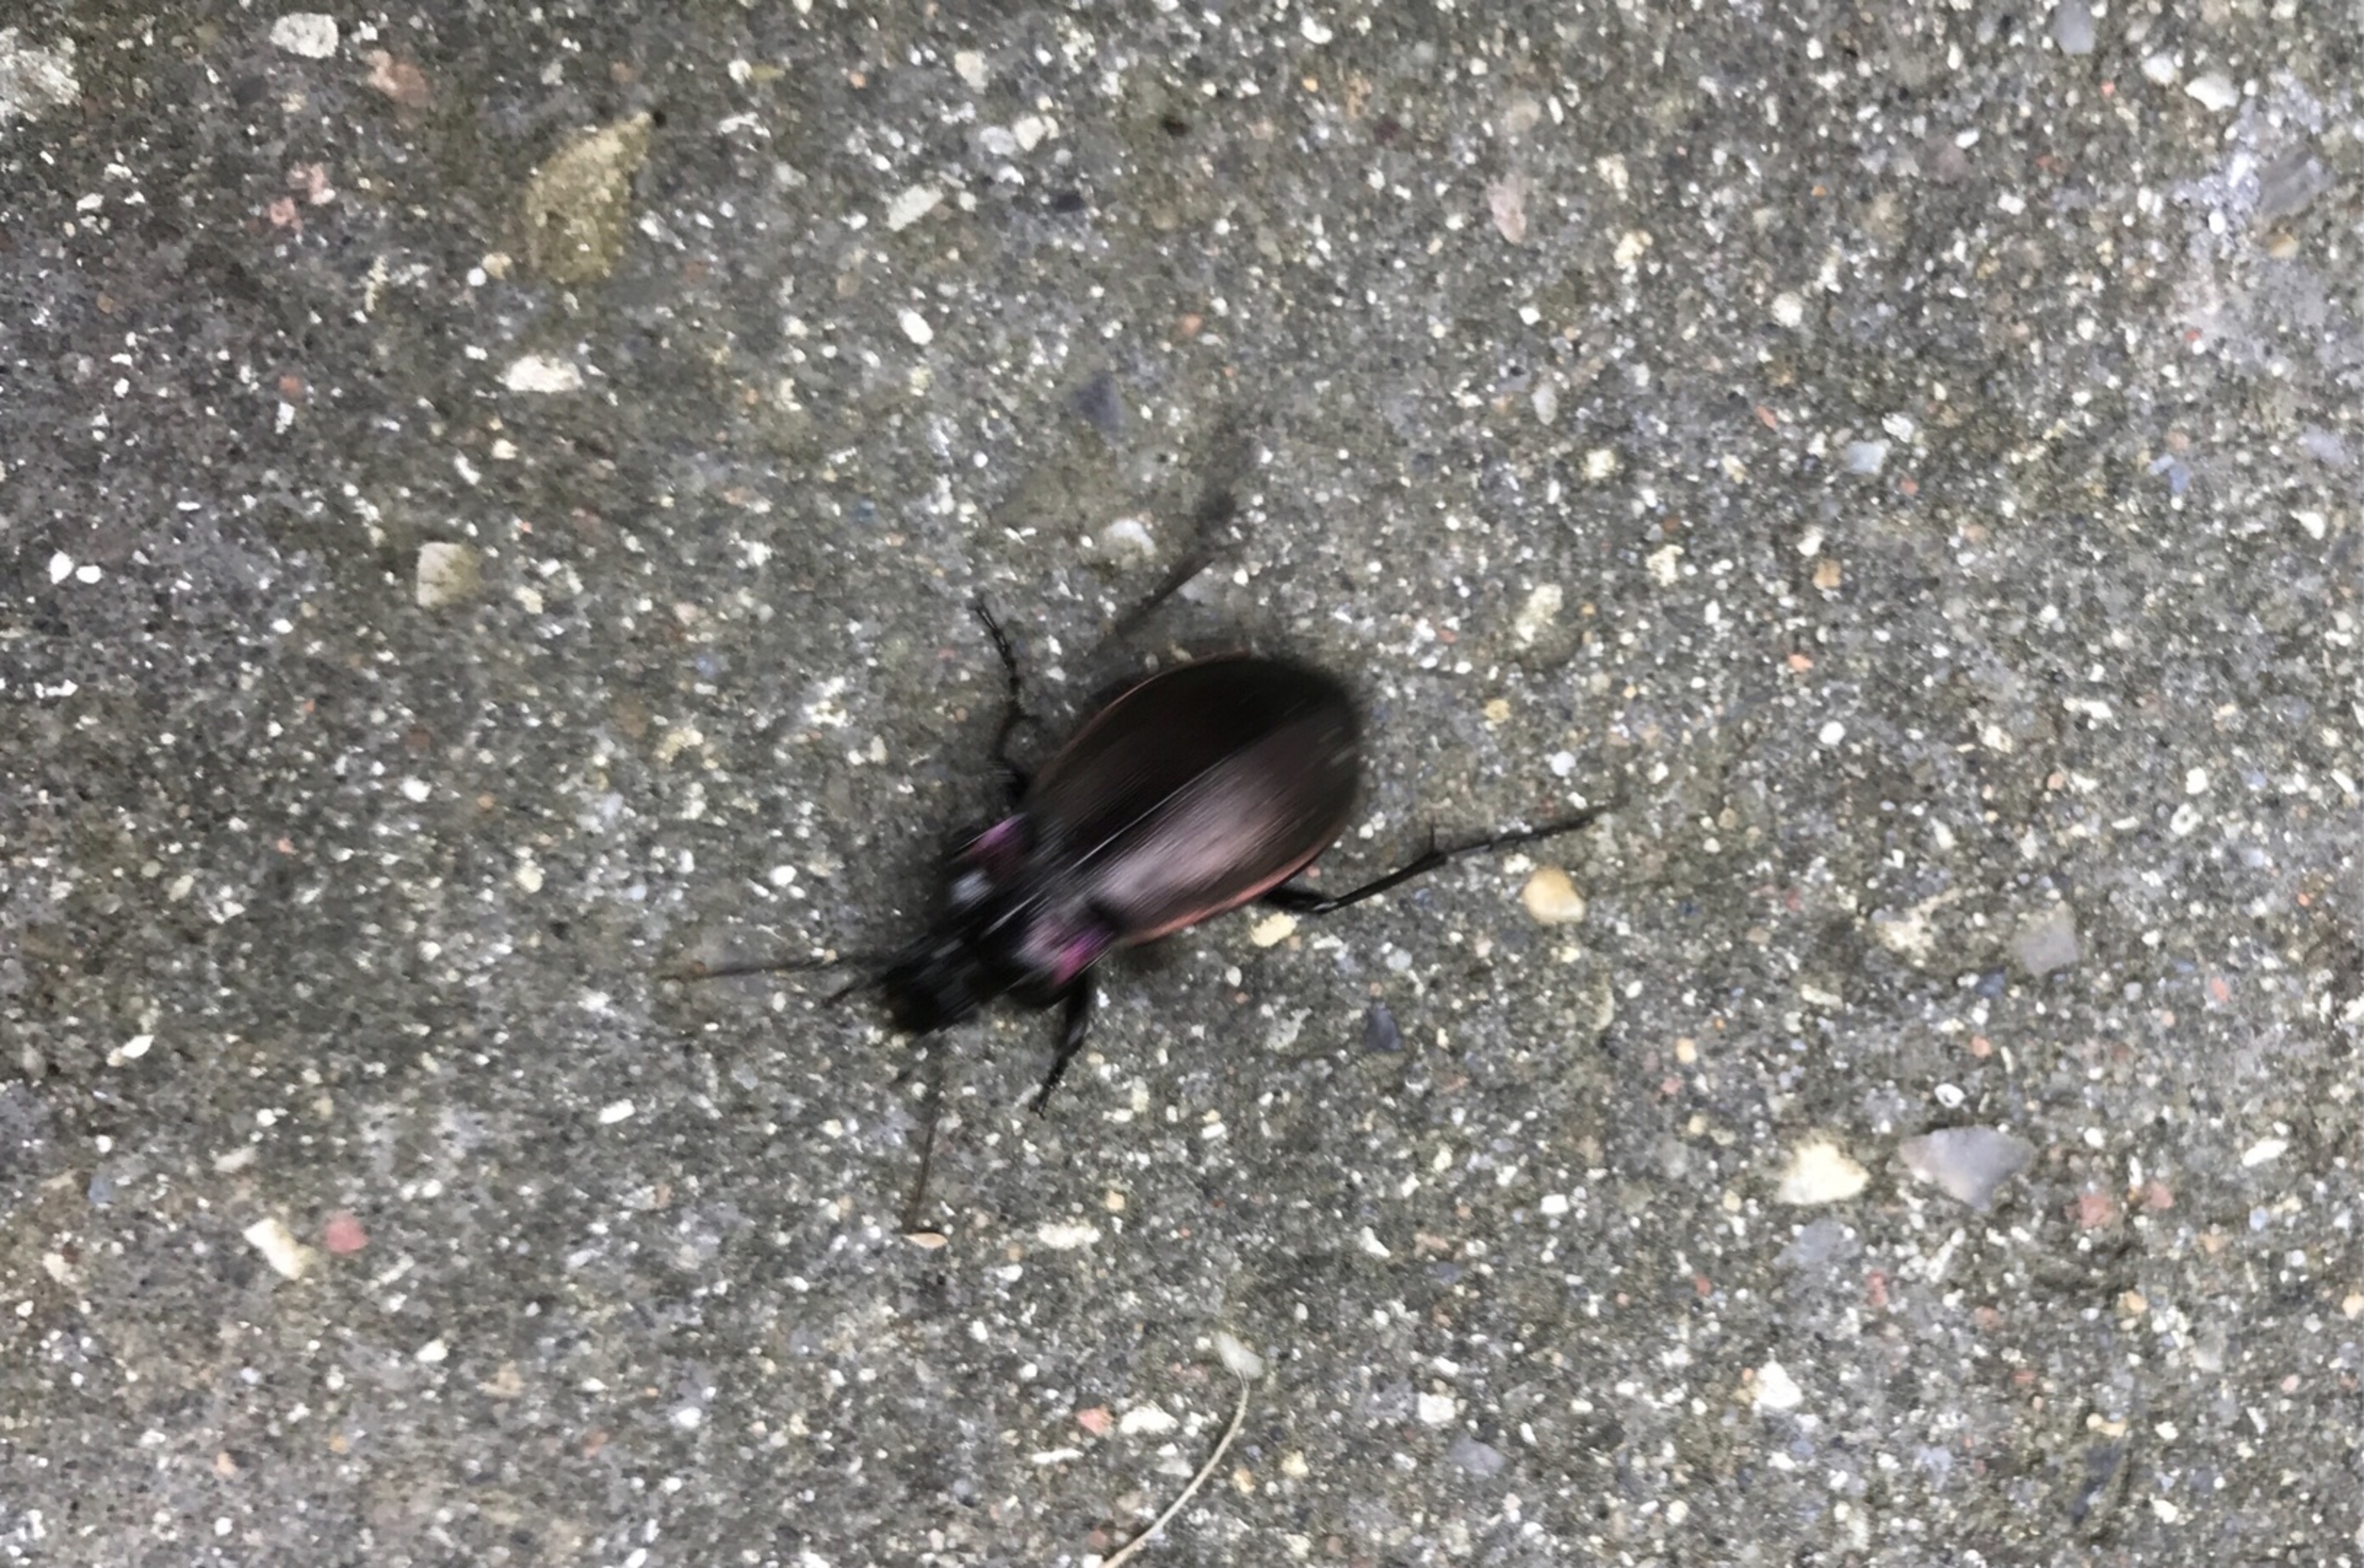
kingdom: Animalia
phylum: Arthropoda
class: Insecta
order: Coleoptera
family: Carabidae
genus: Carabus
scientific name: Carabus nemoralis
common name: Kratløber
